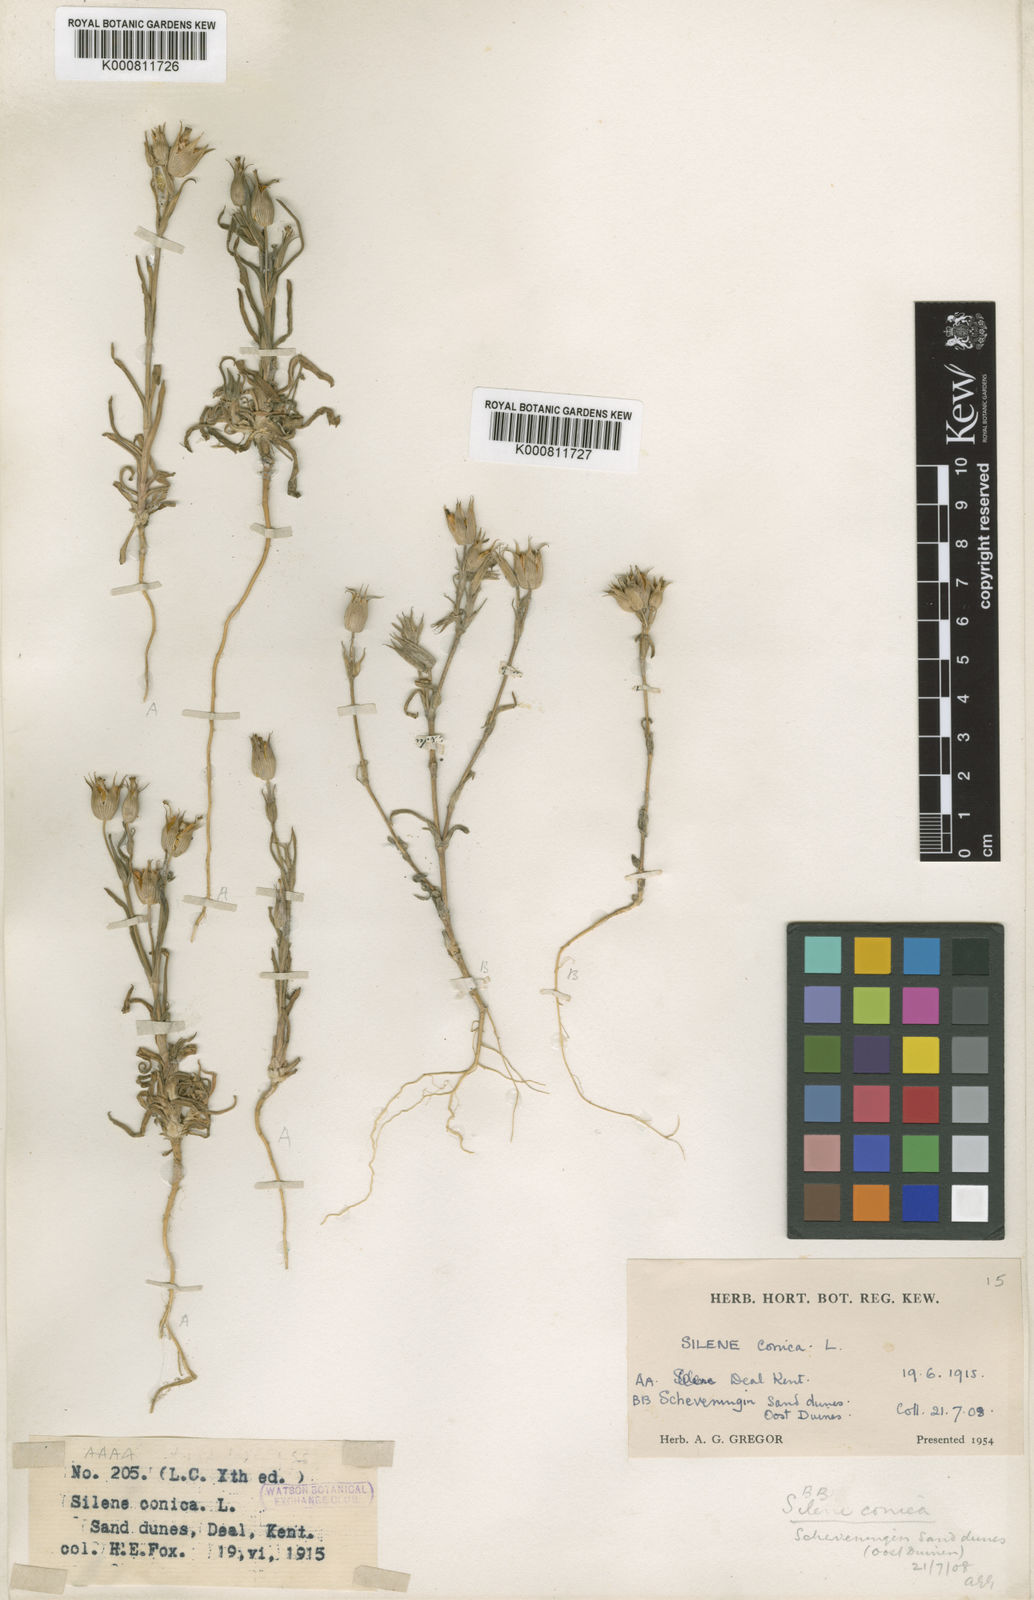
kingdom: Plantae
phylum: Tracheophyta
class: Magnoliopsida
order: Caryophyllales
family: Caryophyllaceae
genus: Silene
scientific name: Silene conica
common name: Sand catchfly
